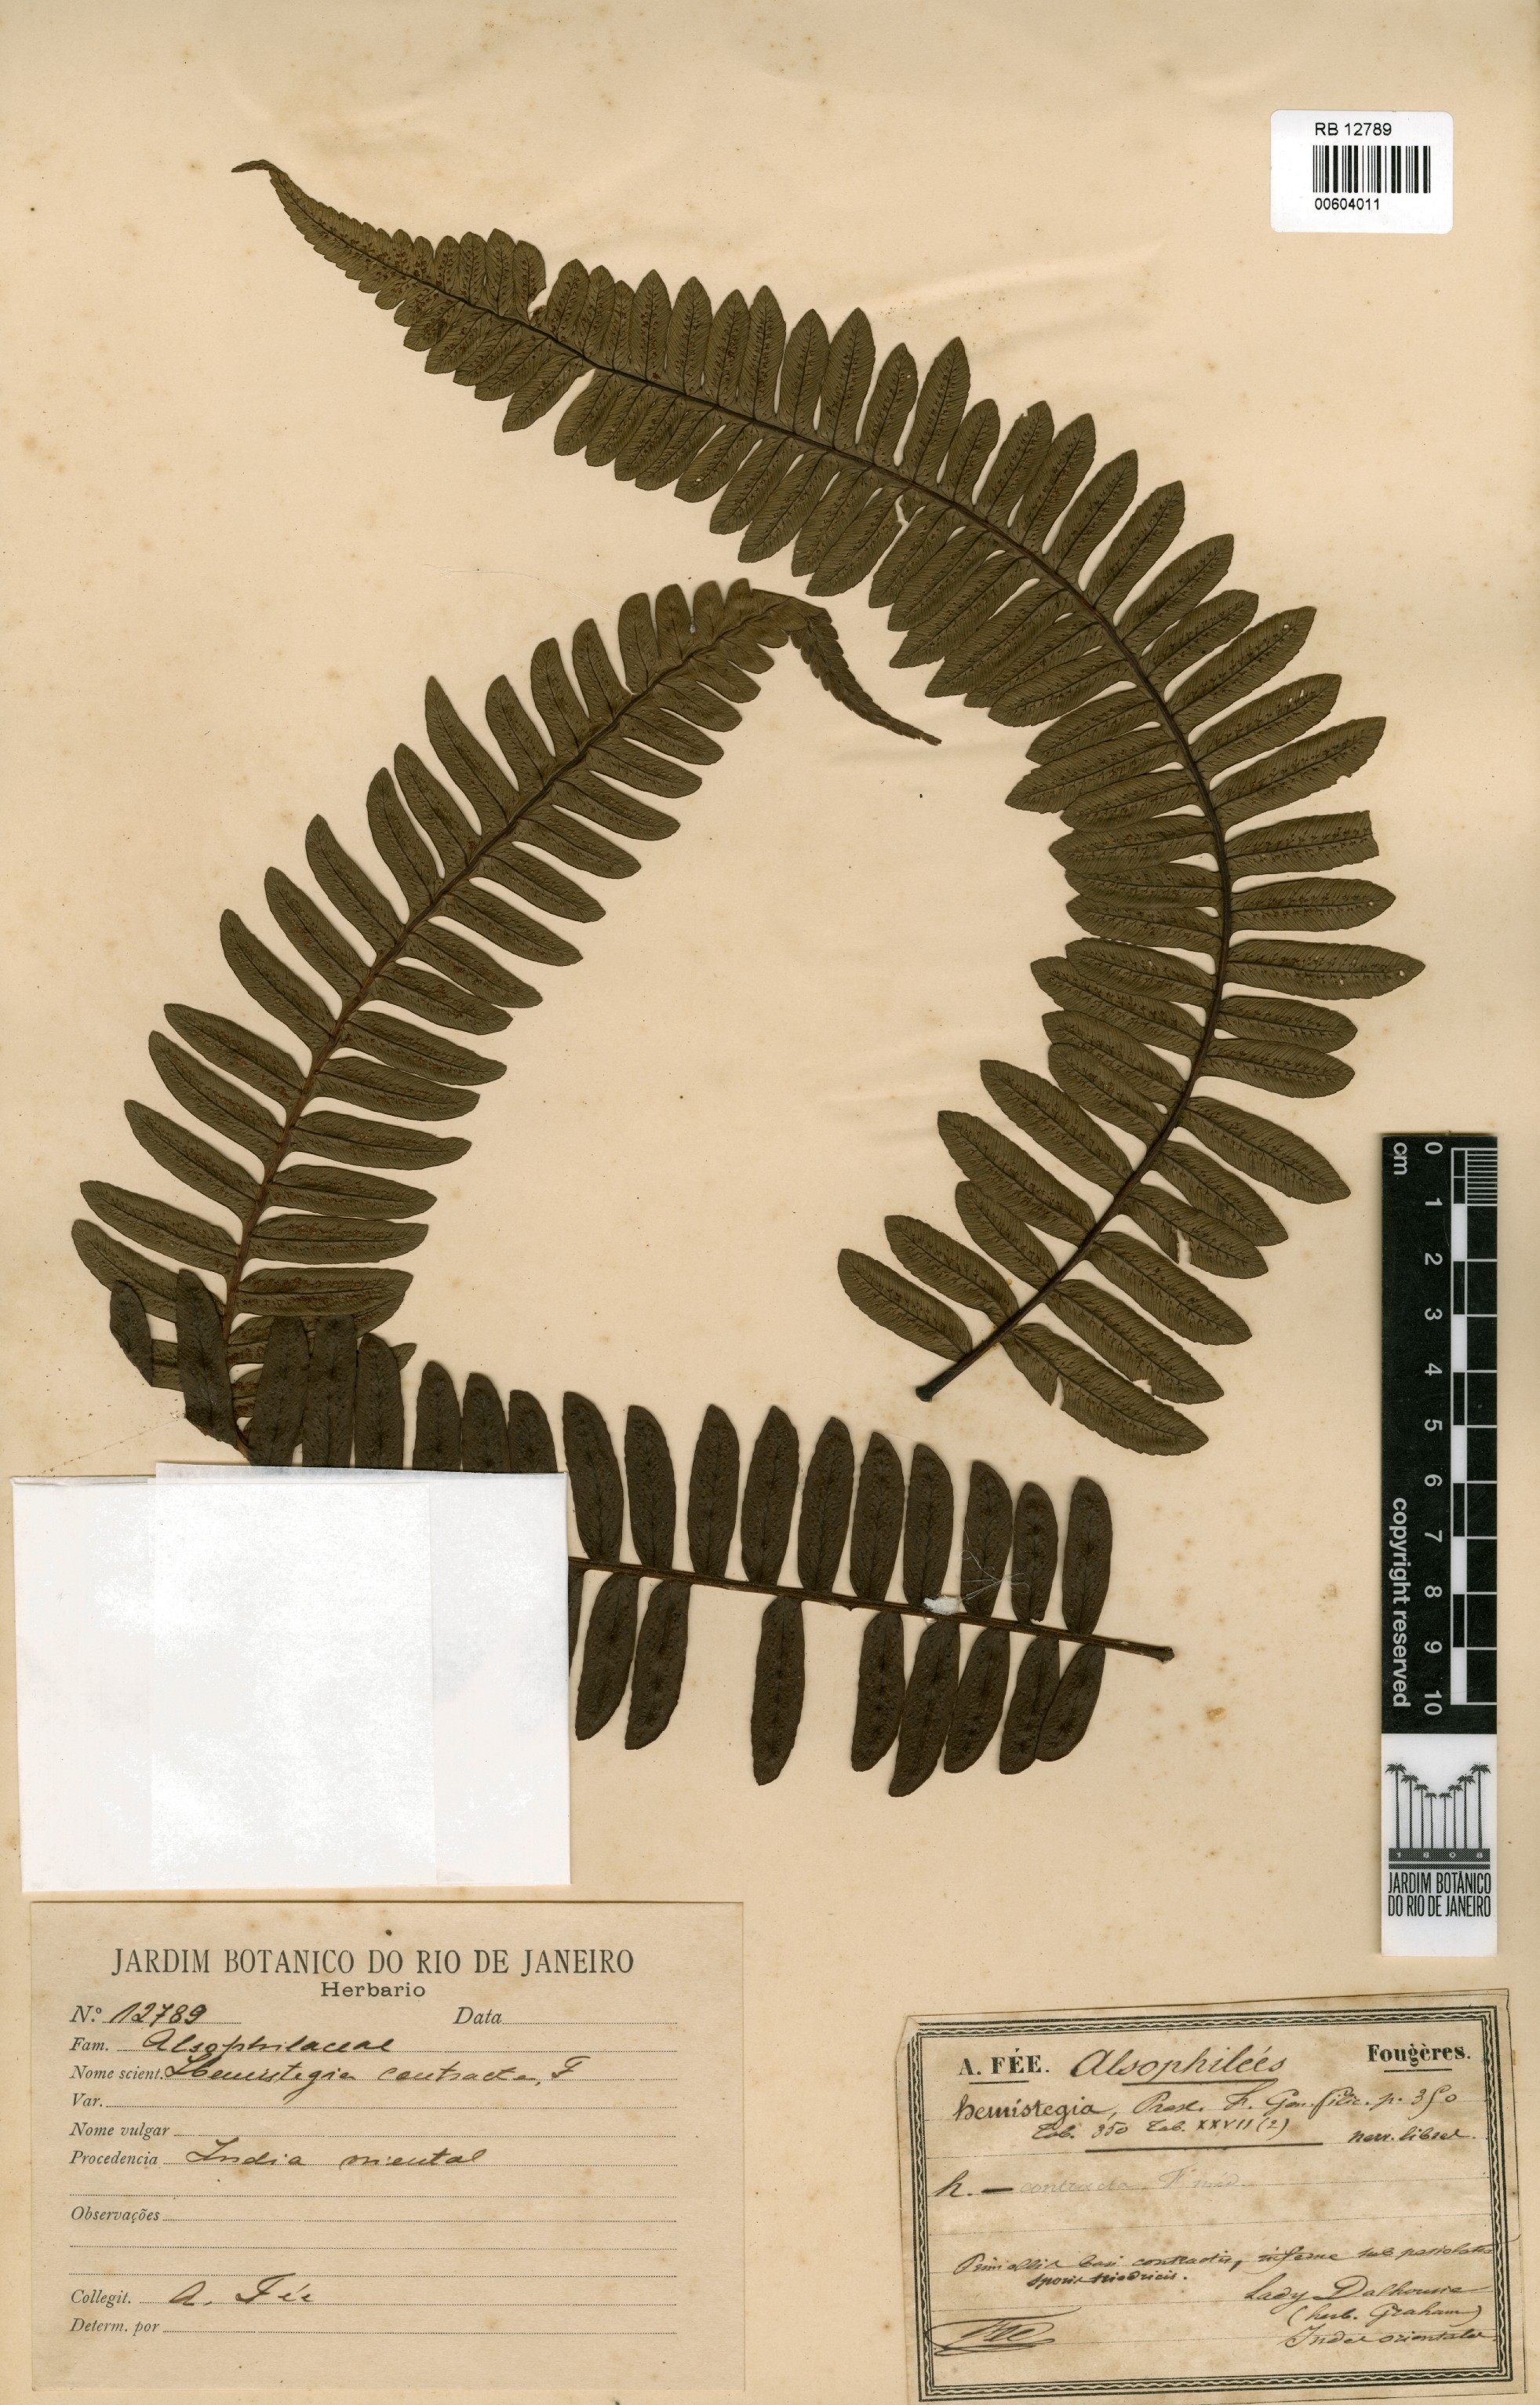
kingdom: Plantae
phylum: Tracheophyta
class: Polypodiopsida
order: Cyatheales
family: Cyatheaceae
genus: Cyathea
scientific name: Cyathea Hemistegia contracta
